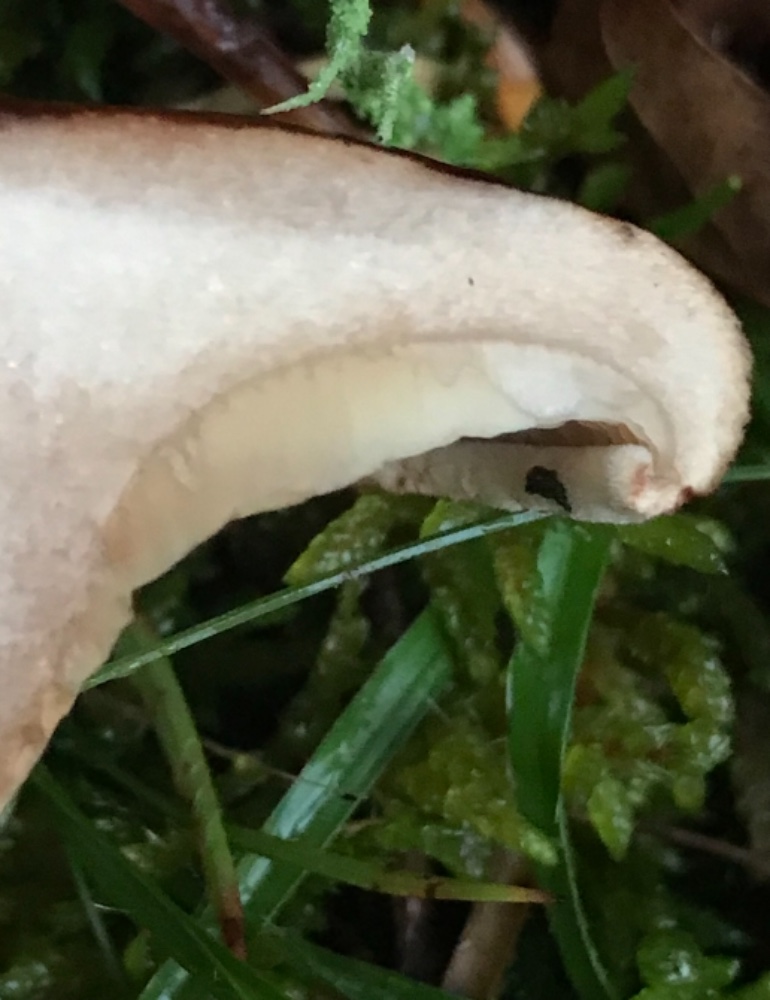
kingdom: Fungi
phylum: Basidiomycota
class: Agaricomycetes
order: Boletales
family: Paxillaceae
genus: Paxillus
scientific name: Paxillus involutus
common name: almindelig netbladhat
